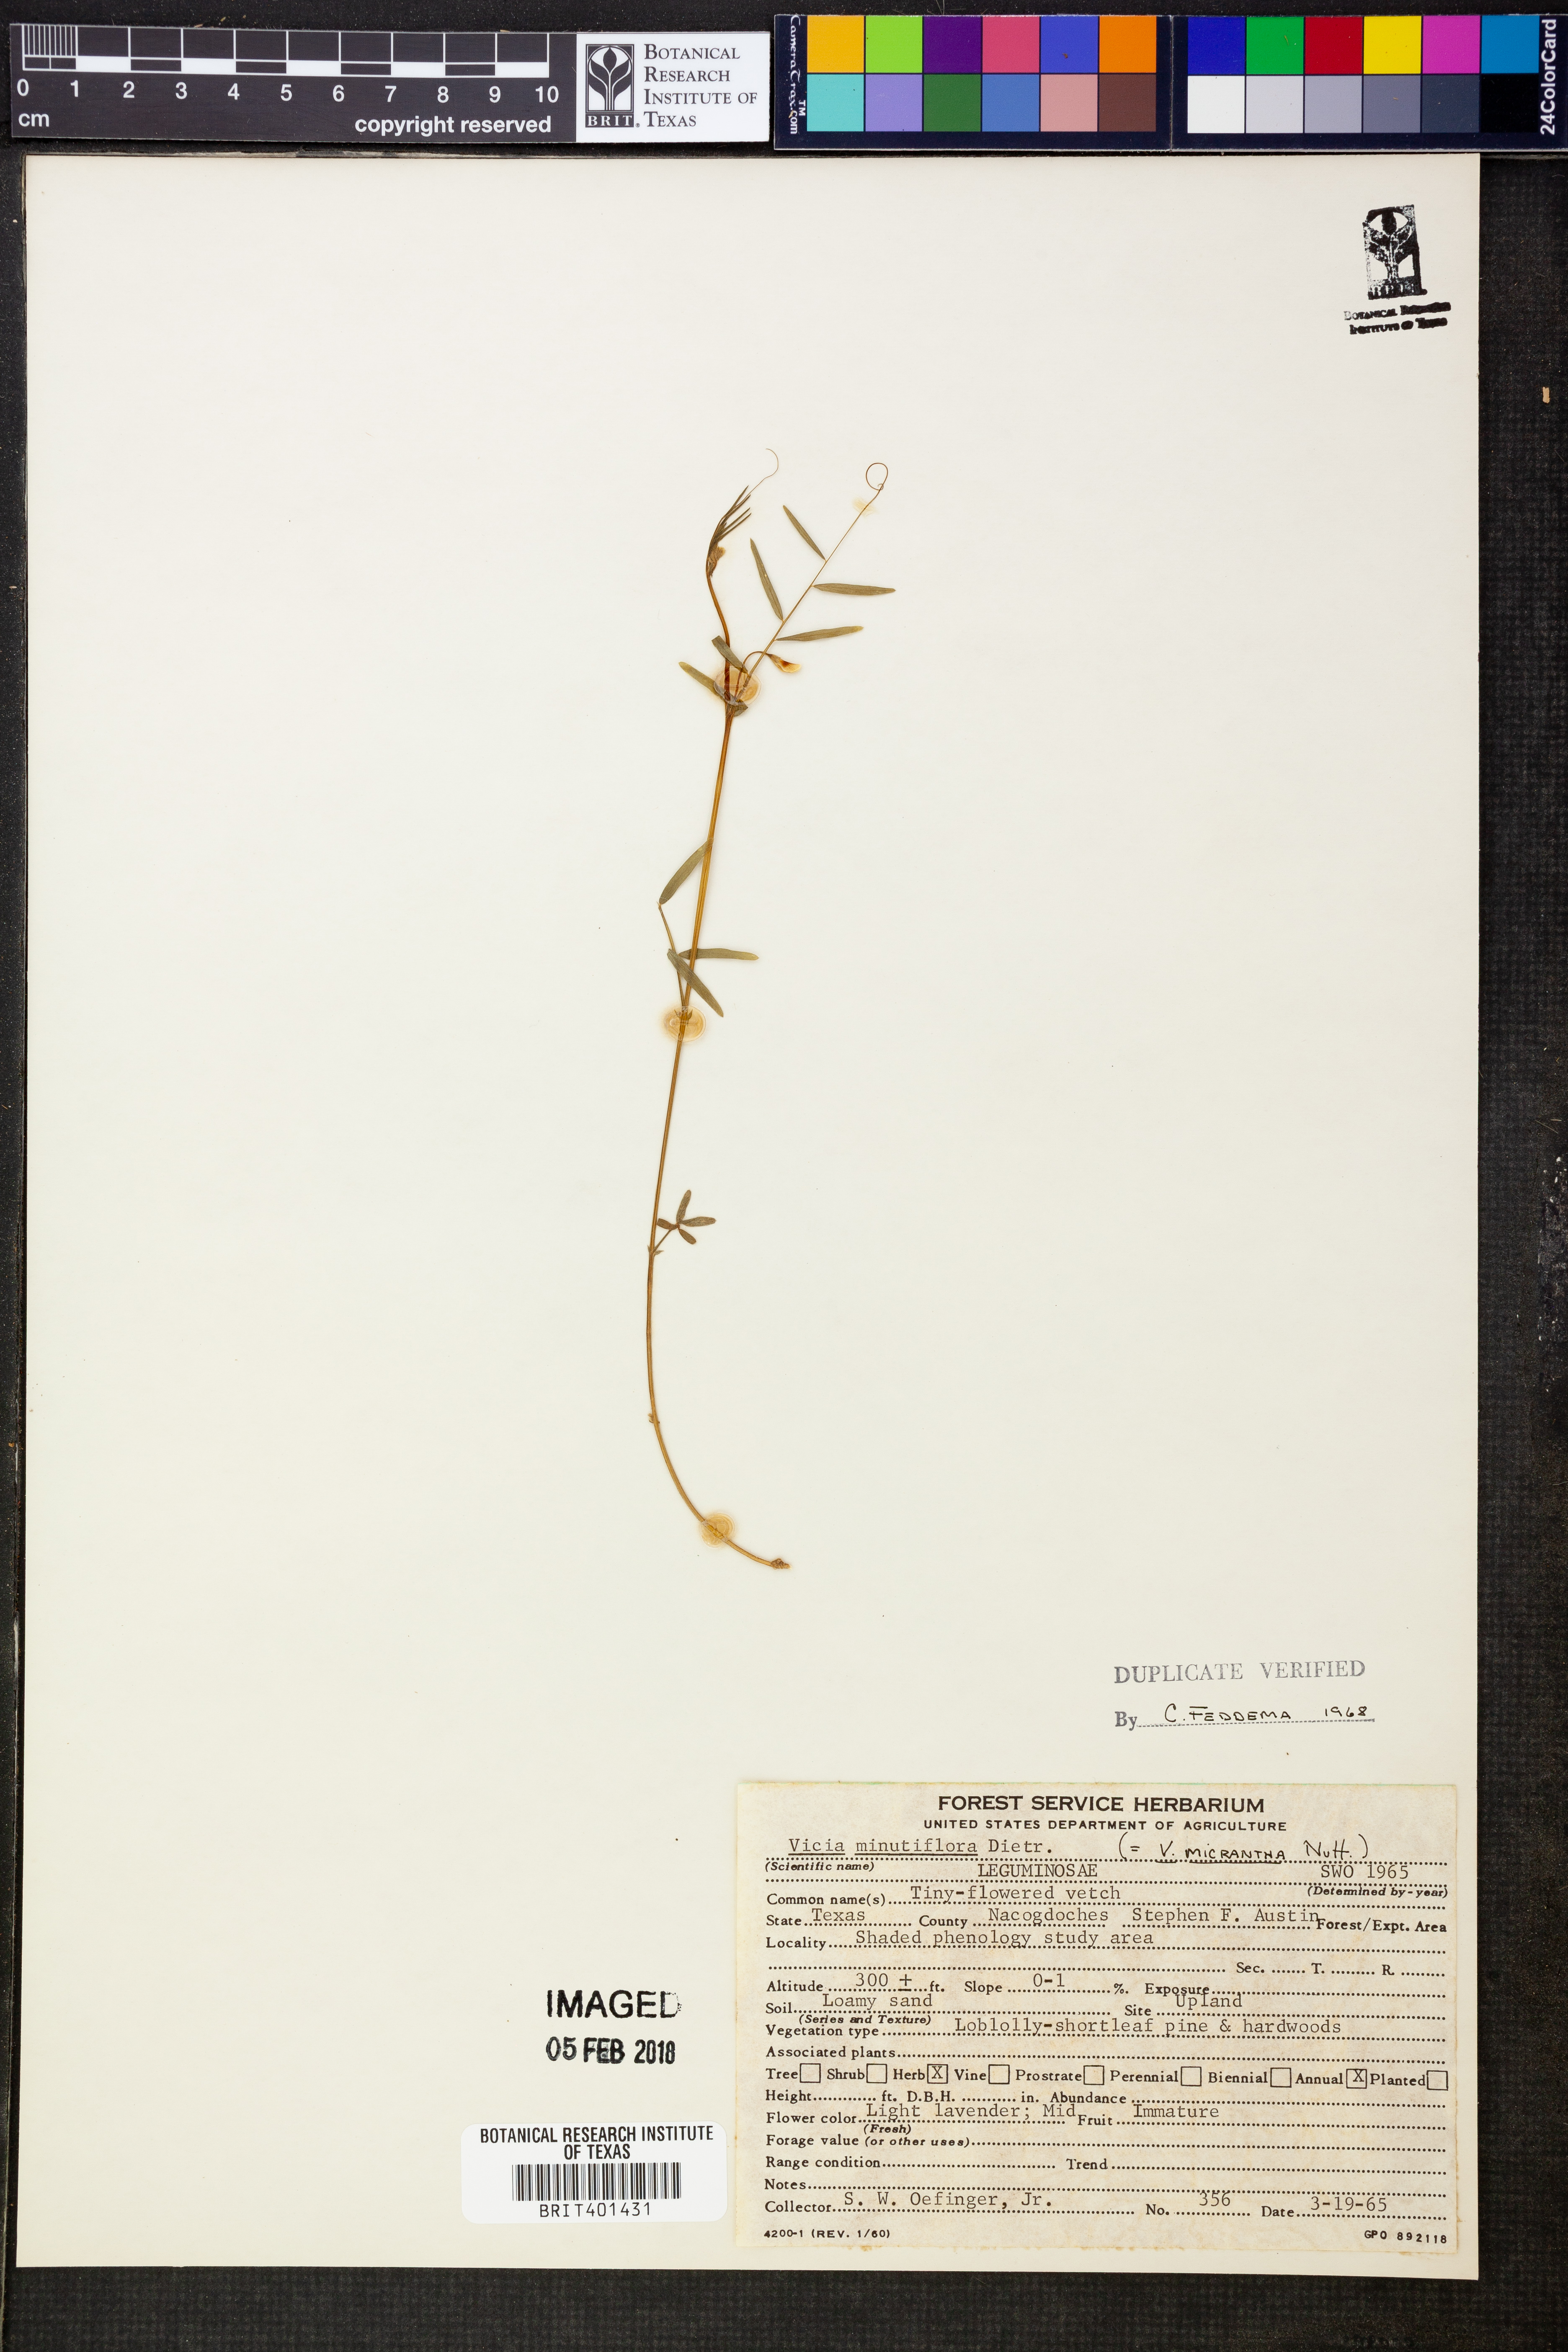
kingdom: Plantae
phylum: Tracheophyta
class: Magnoliopsida
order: Fabales
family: Fabaceae
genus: Vicia
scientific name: Vicia minutiflora
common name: Pygmy-flower vetch
